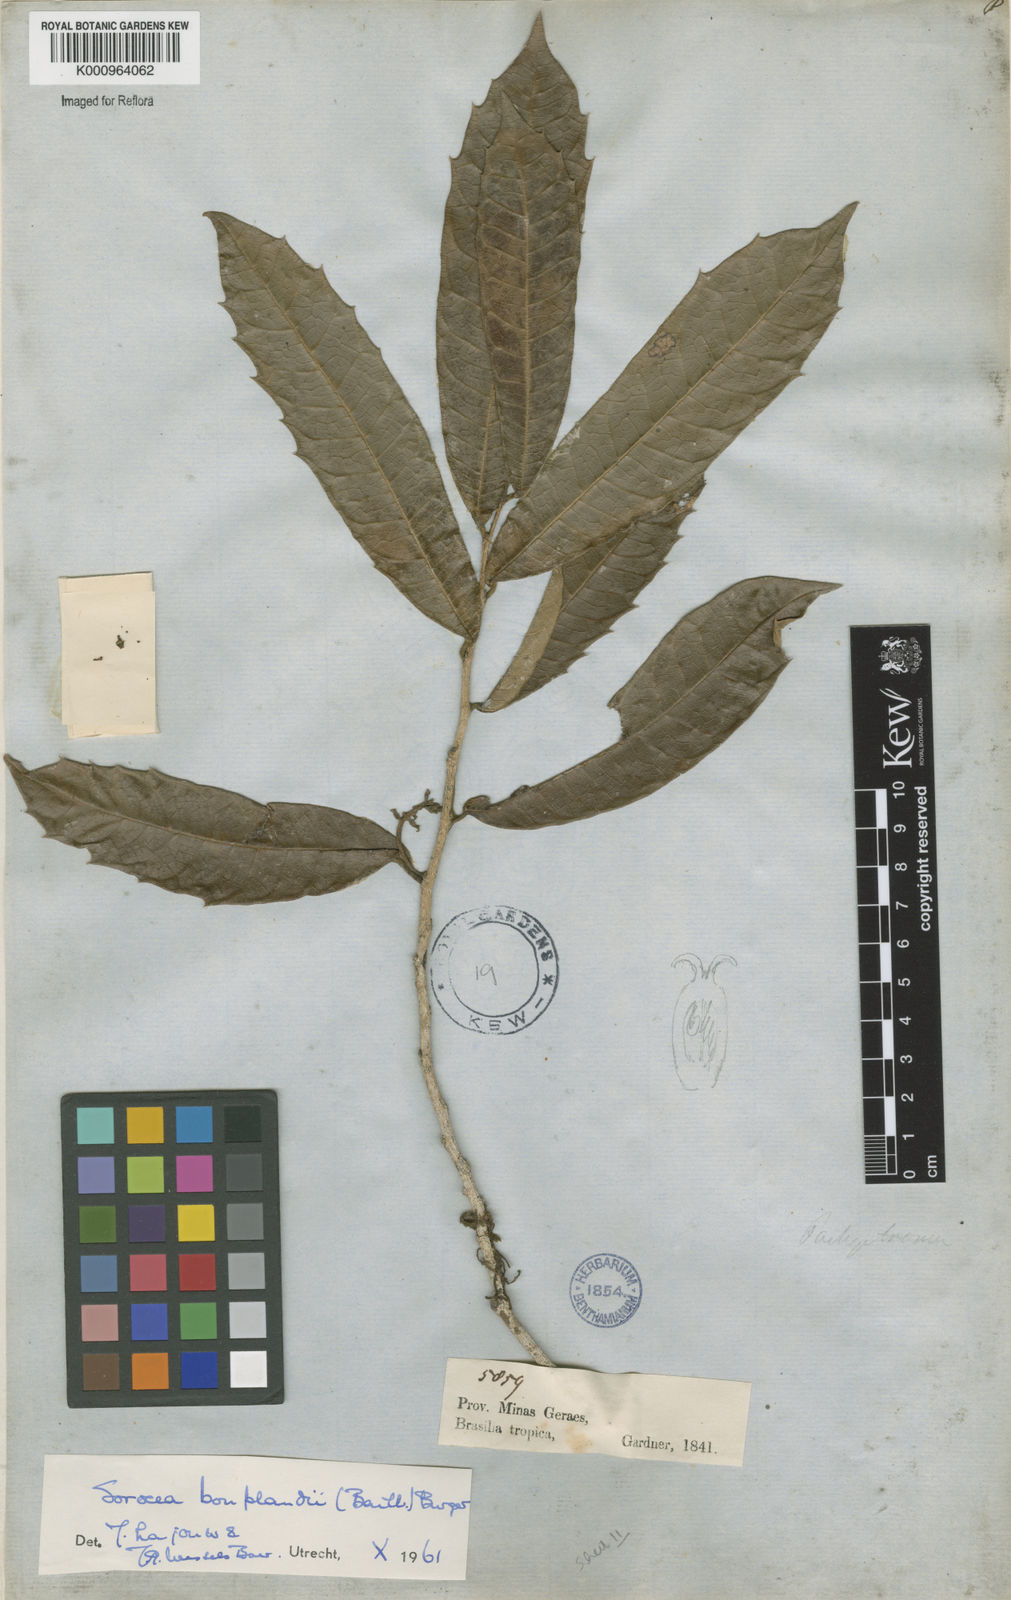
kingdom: Plantae
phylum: Tracheophyta
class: Magnoliopsida
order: Rosales
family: Moraceae
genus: Sorocea
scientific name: Sorocea
